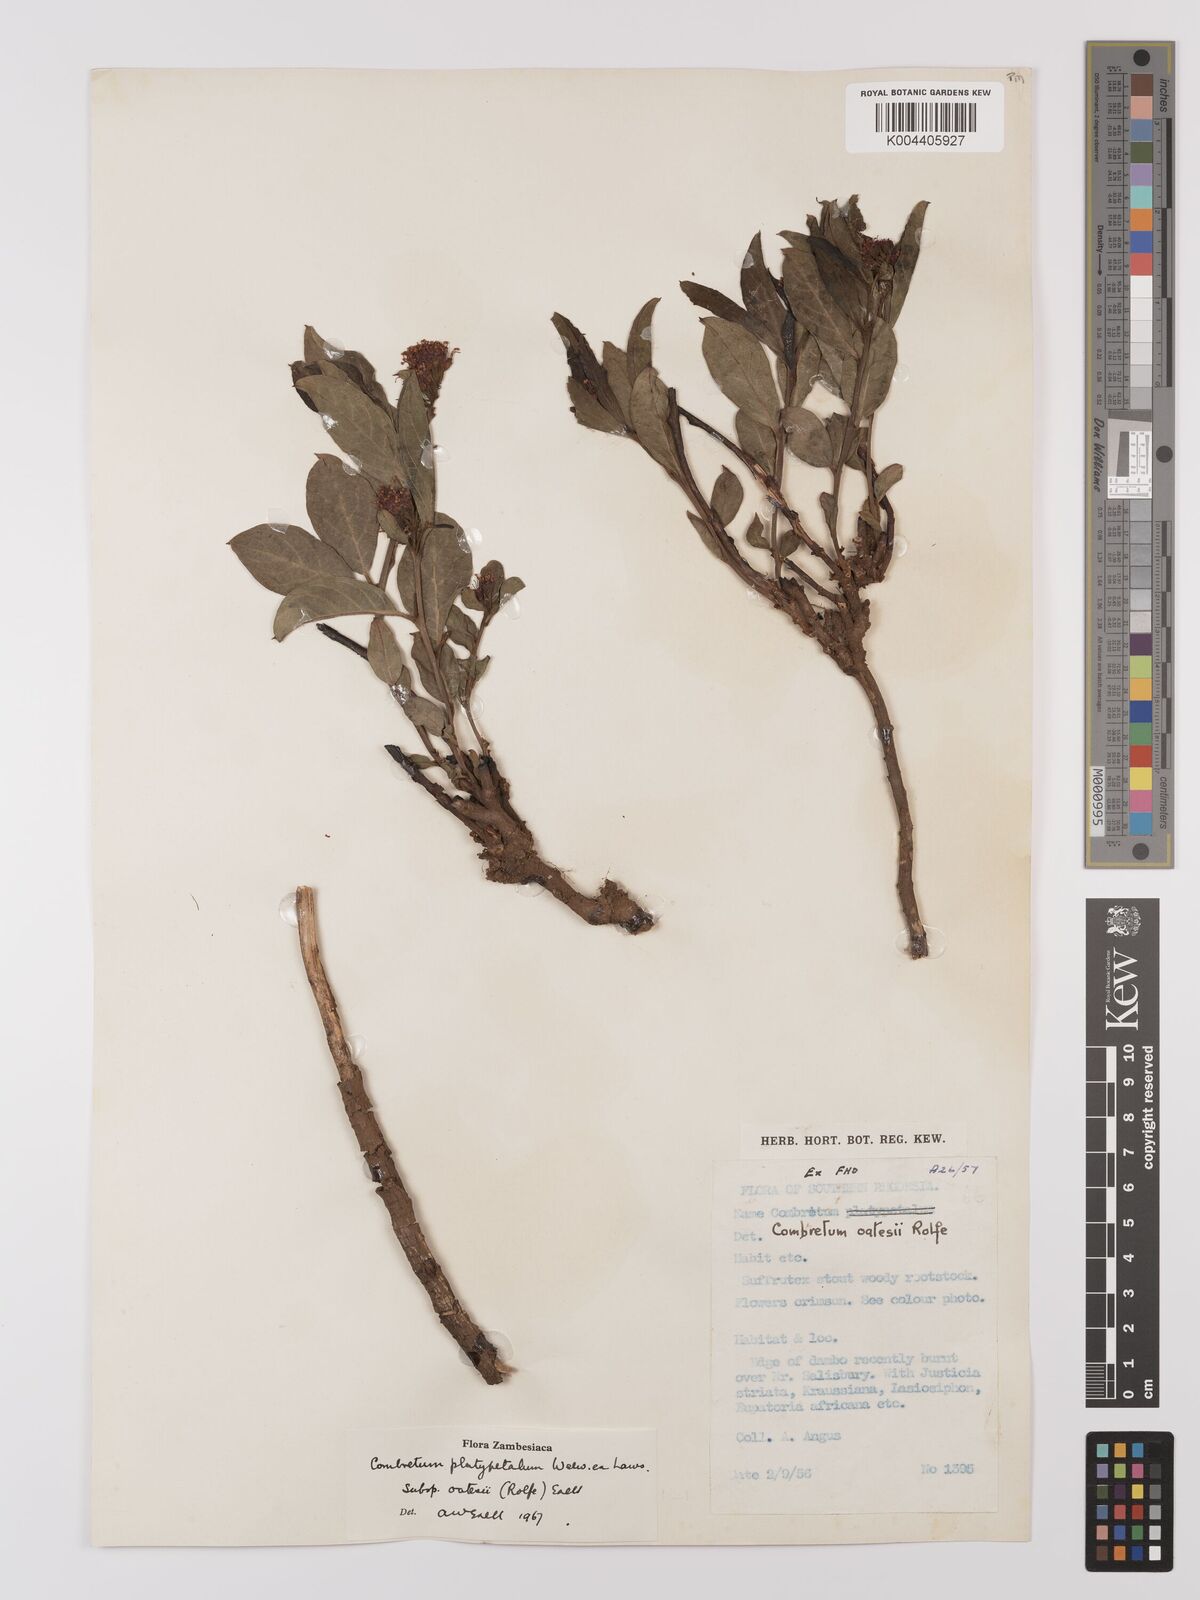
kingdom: Plantae
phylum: Tracheophyta
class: Magnoliopsida
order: Myrtales
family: Combretaceae
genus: Combretum
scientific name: Combretum platypetalum
